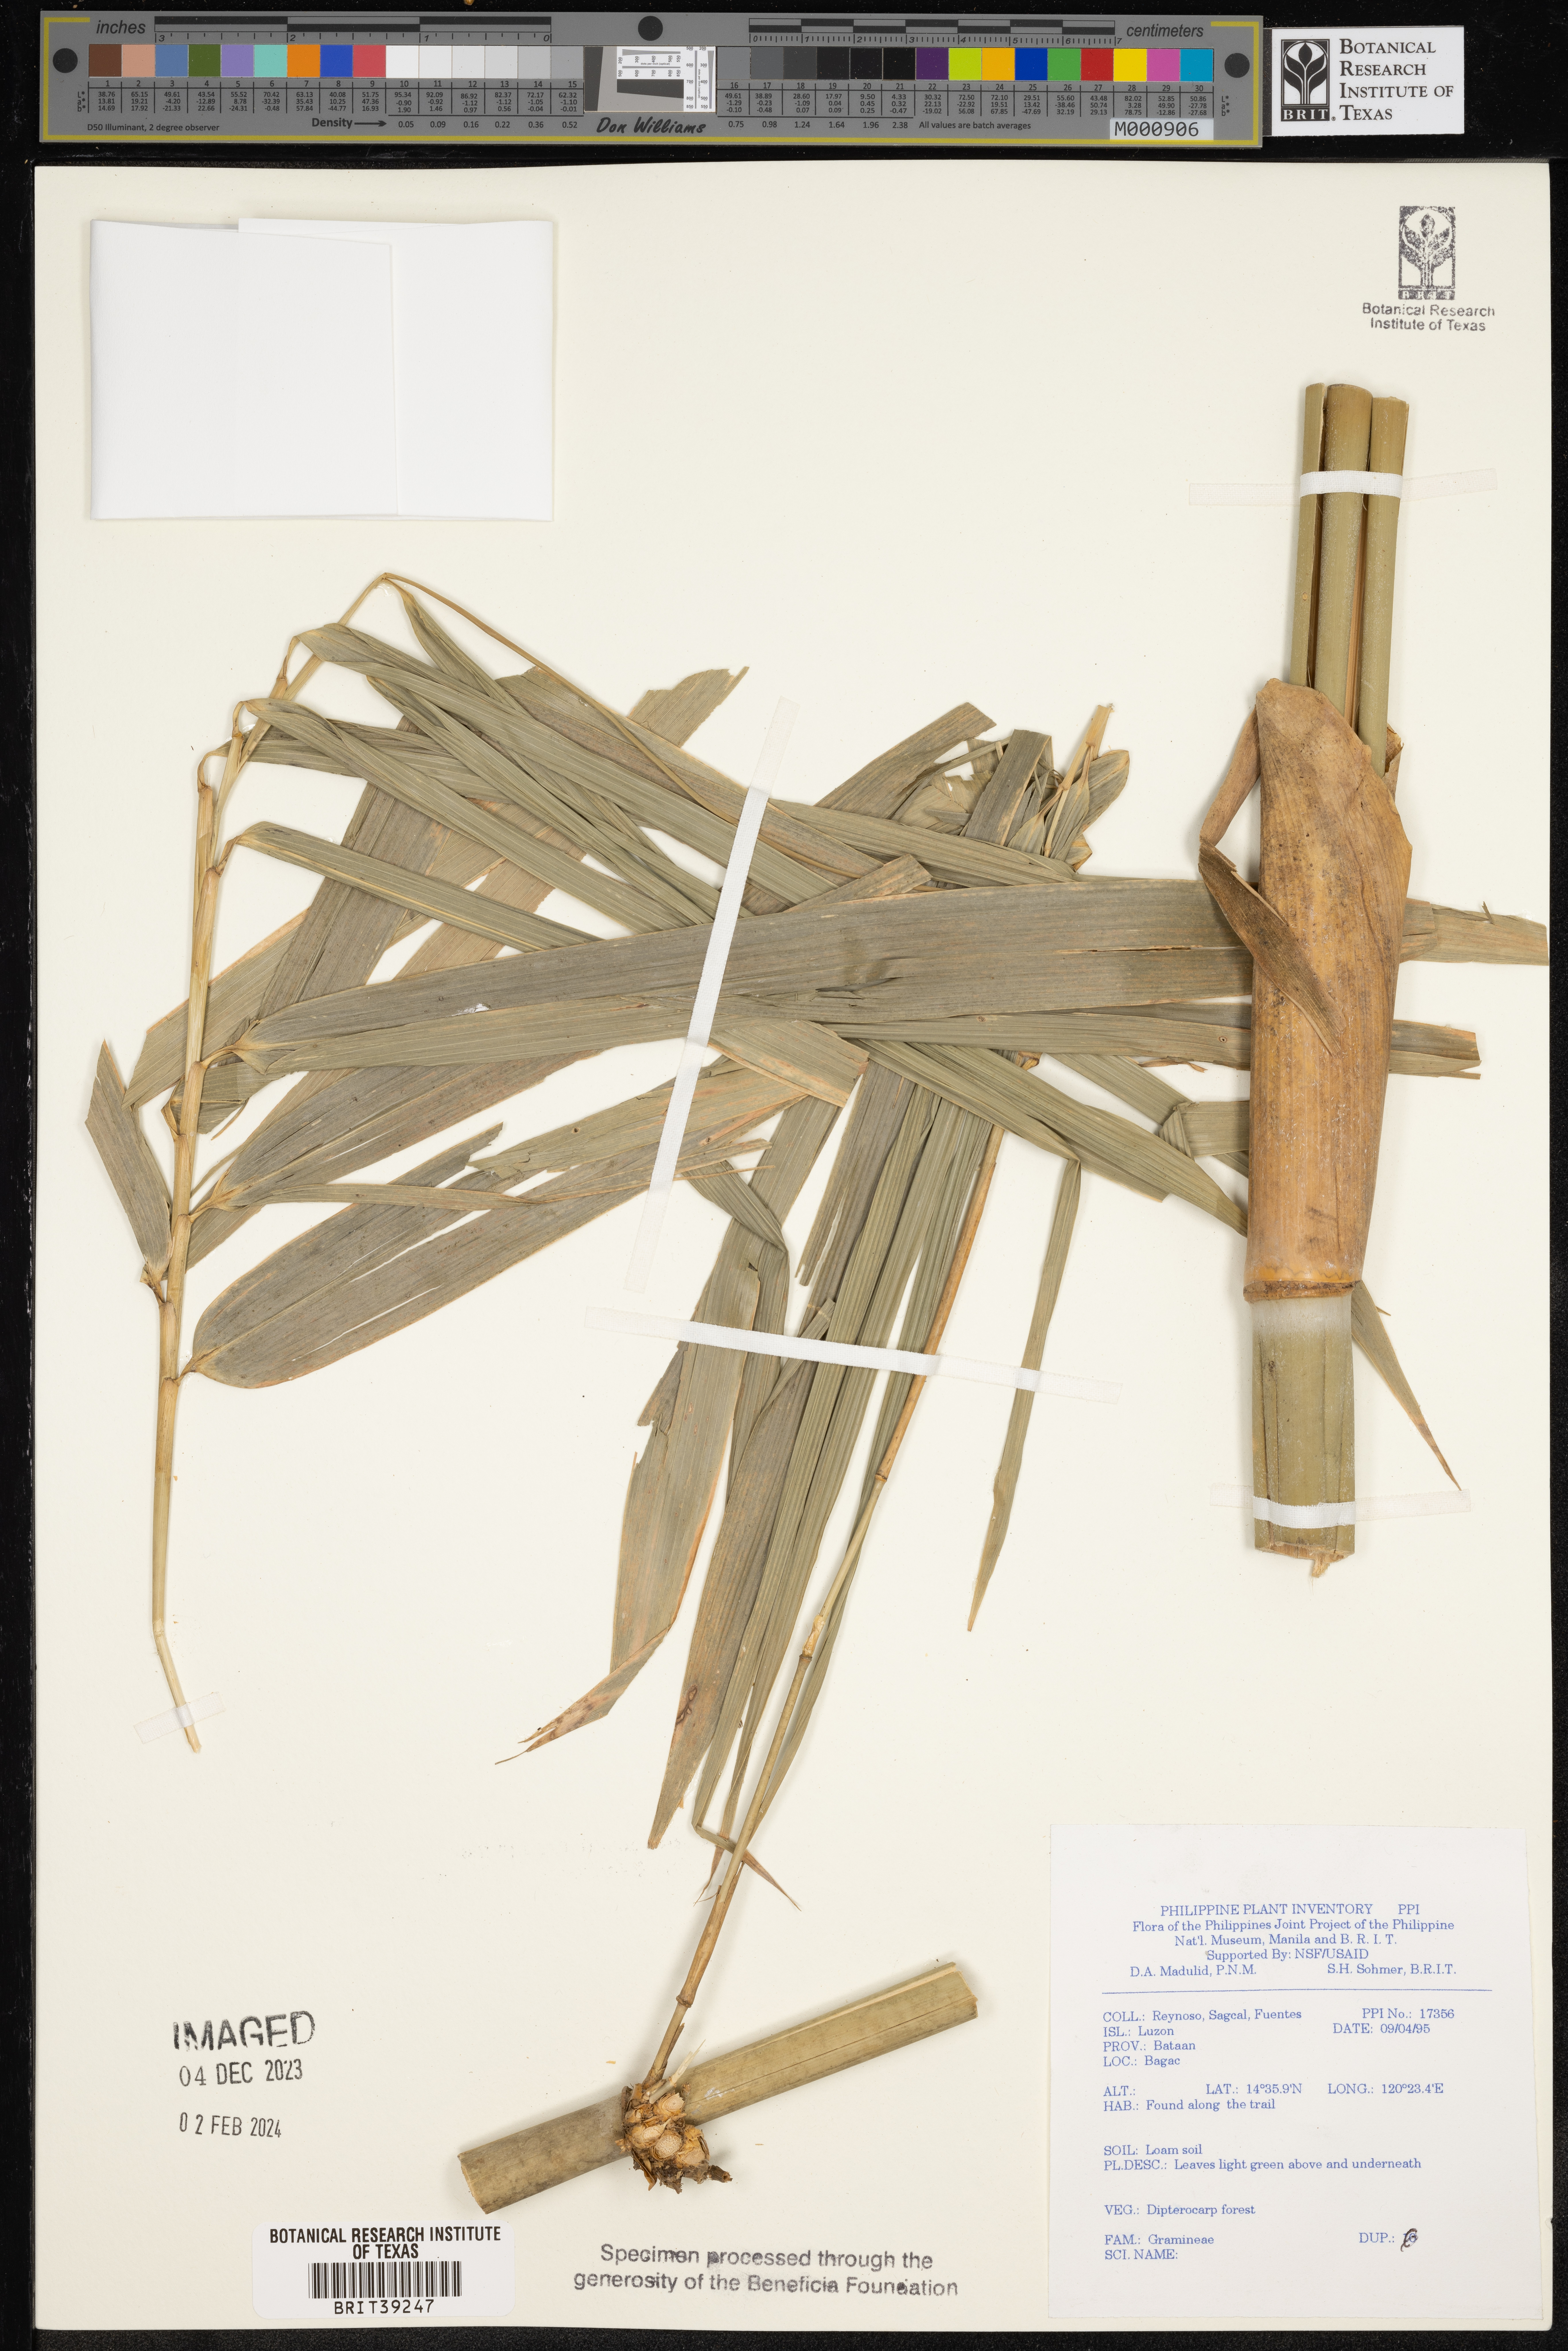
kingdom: Plantae
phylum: Tracheophyta
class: Liliopsida
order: Poales
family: Poaceae
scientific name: Poaceae
